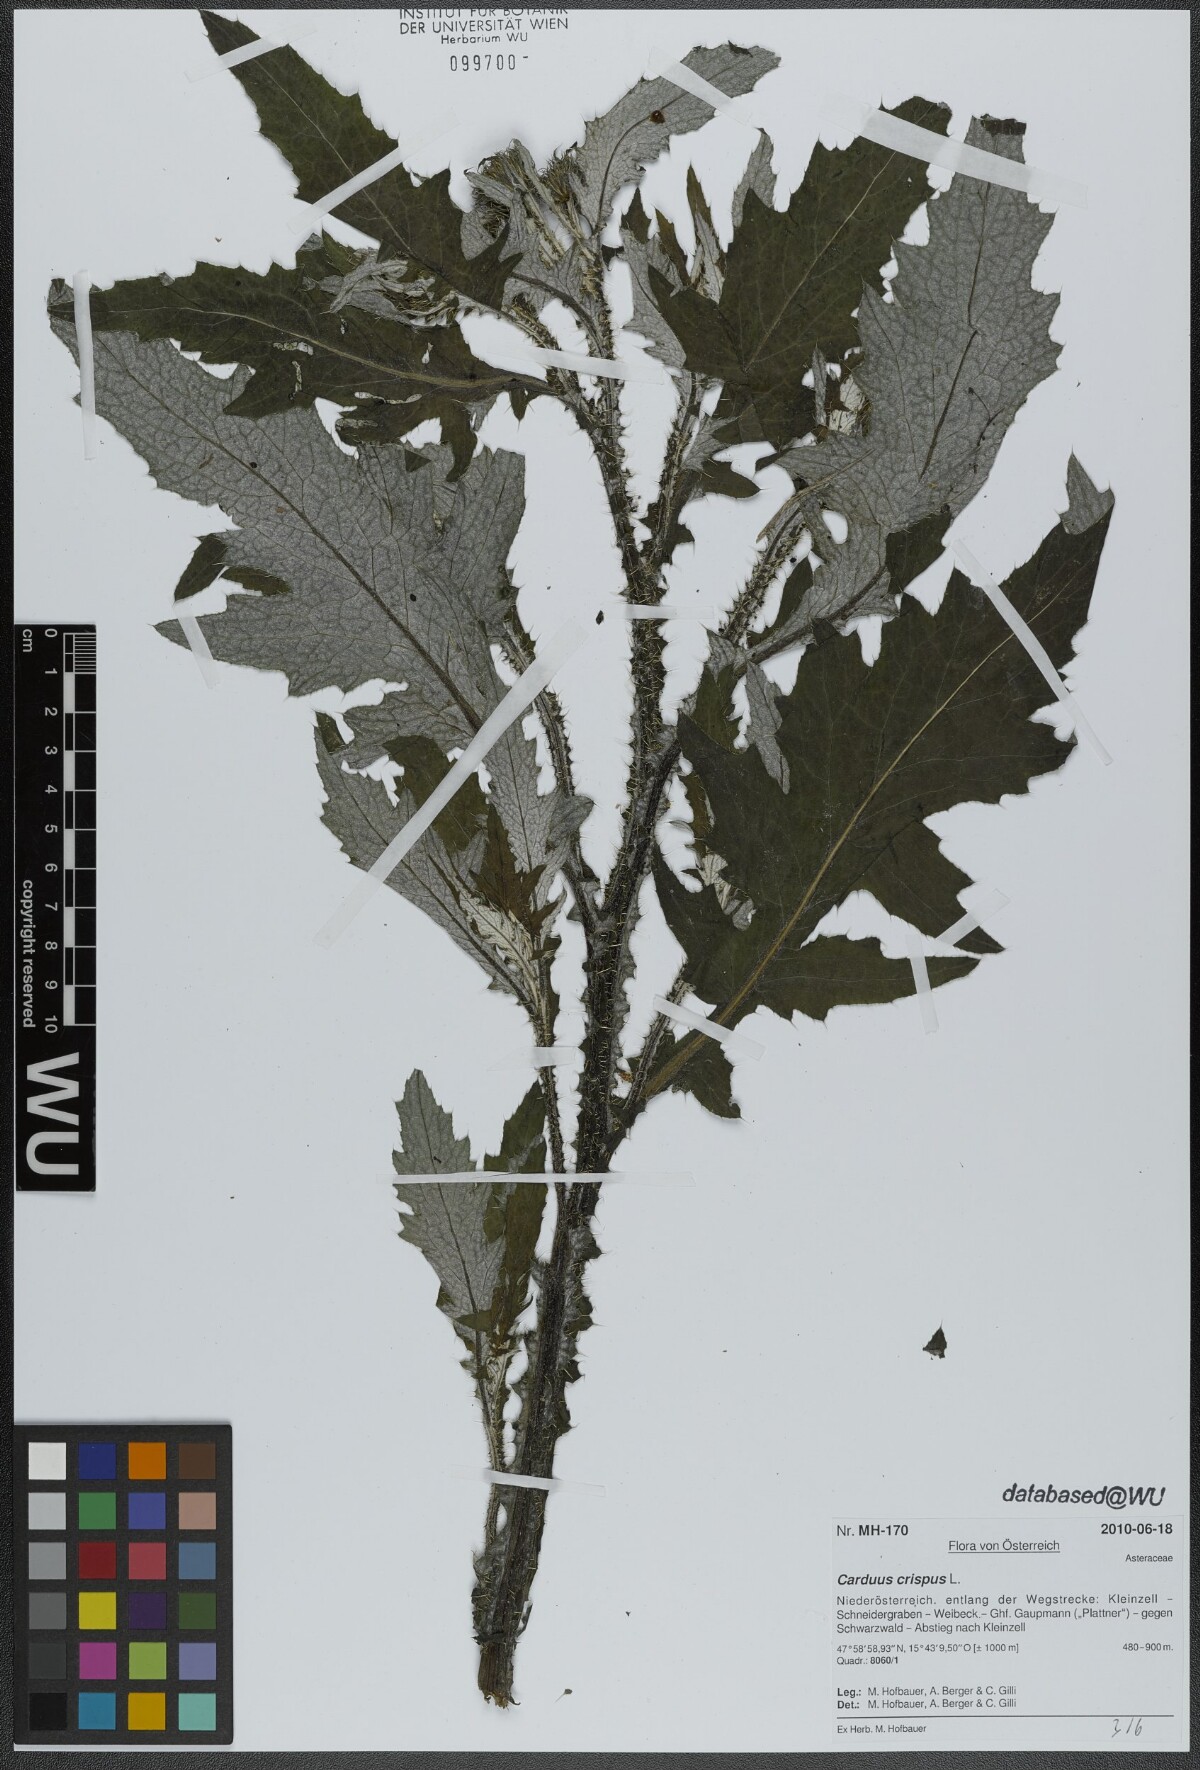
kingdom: Plantae
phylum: Tracheophyta
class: Magnoliopsida
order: Asterales
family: Asteraceae
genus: Carduus
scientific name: Carduus crispus
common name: Welted thistle
